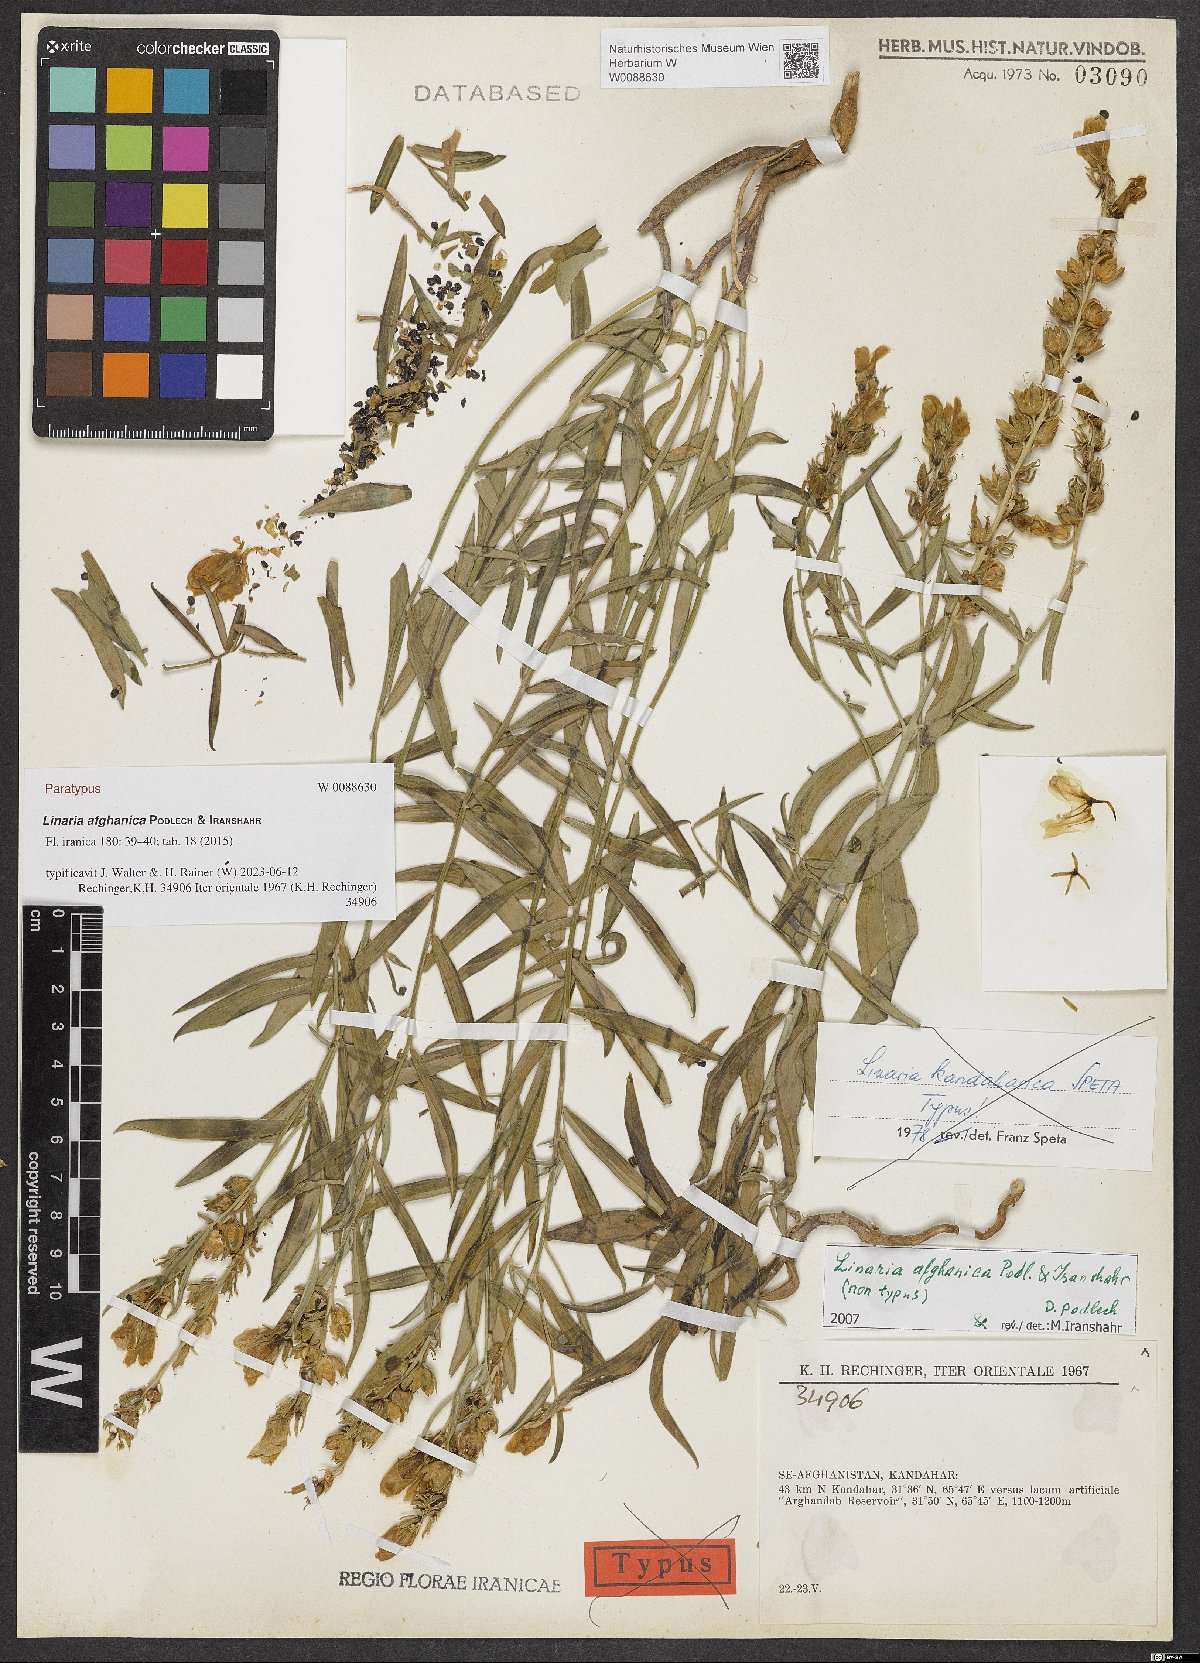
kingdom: Plantae
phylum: Tracheophyta
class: Magnoliopsida
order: Lamiales
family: Plantaginaceae
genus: Linaria
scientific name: Linaria afghanica
